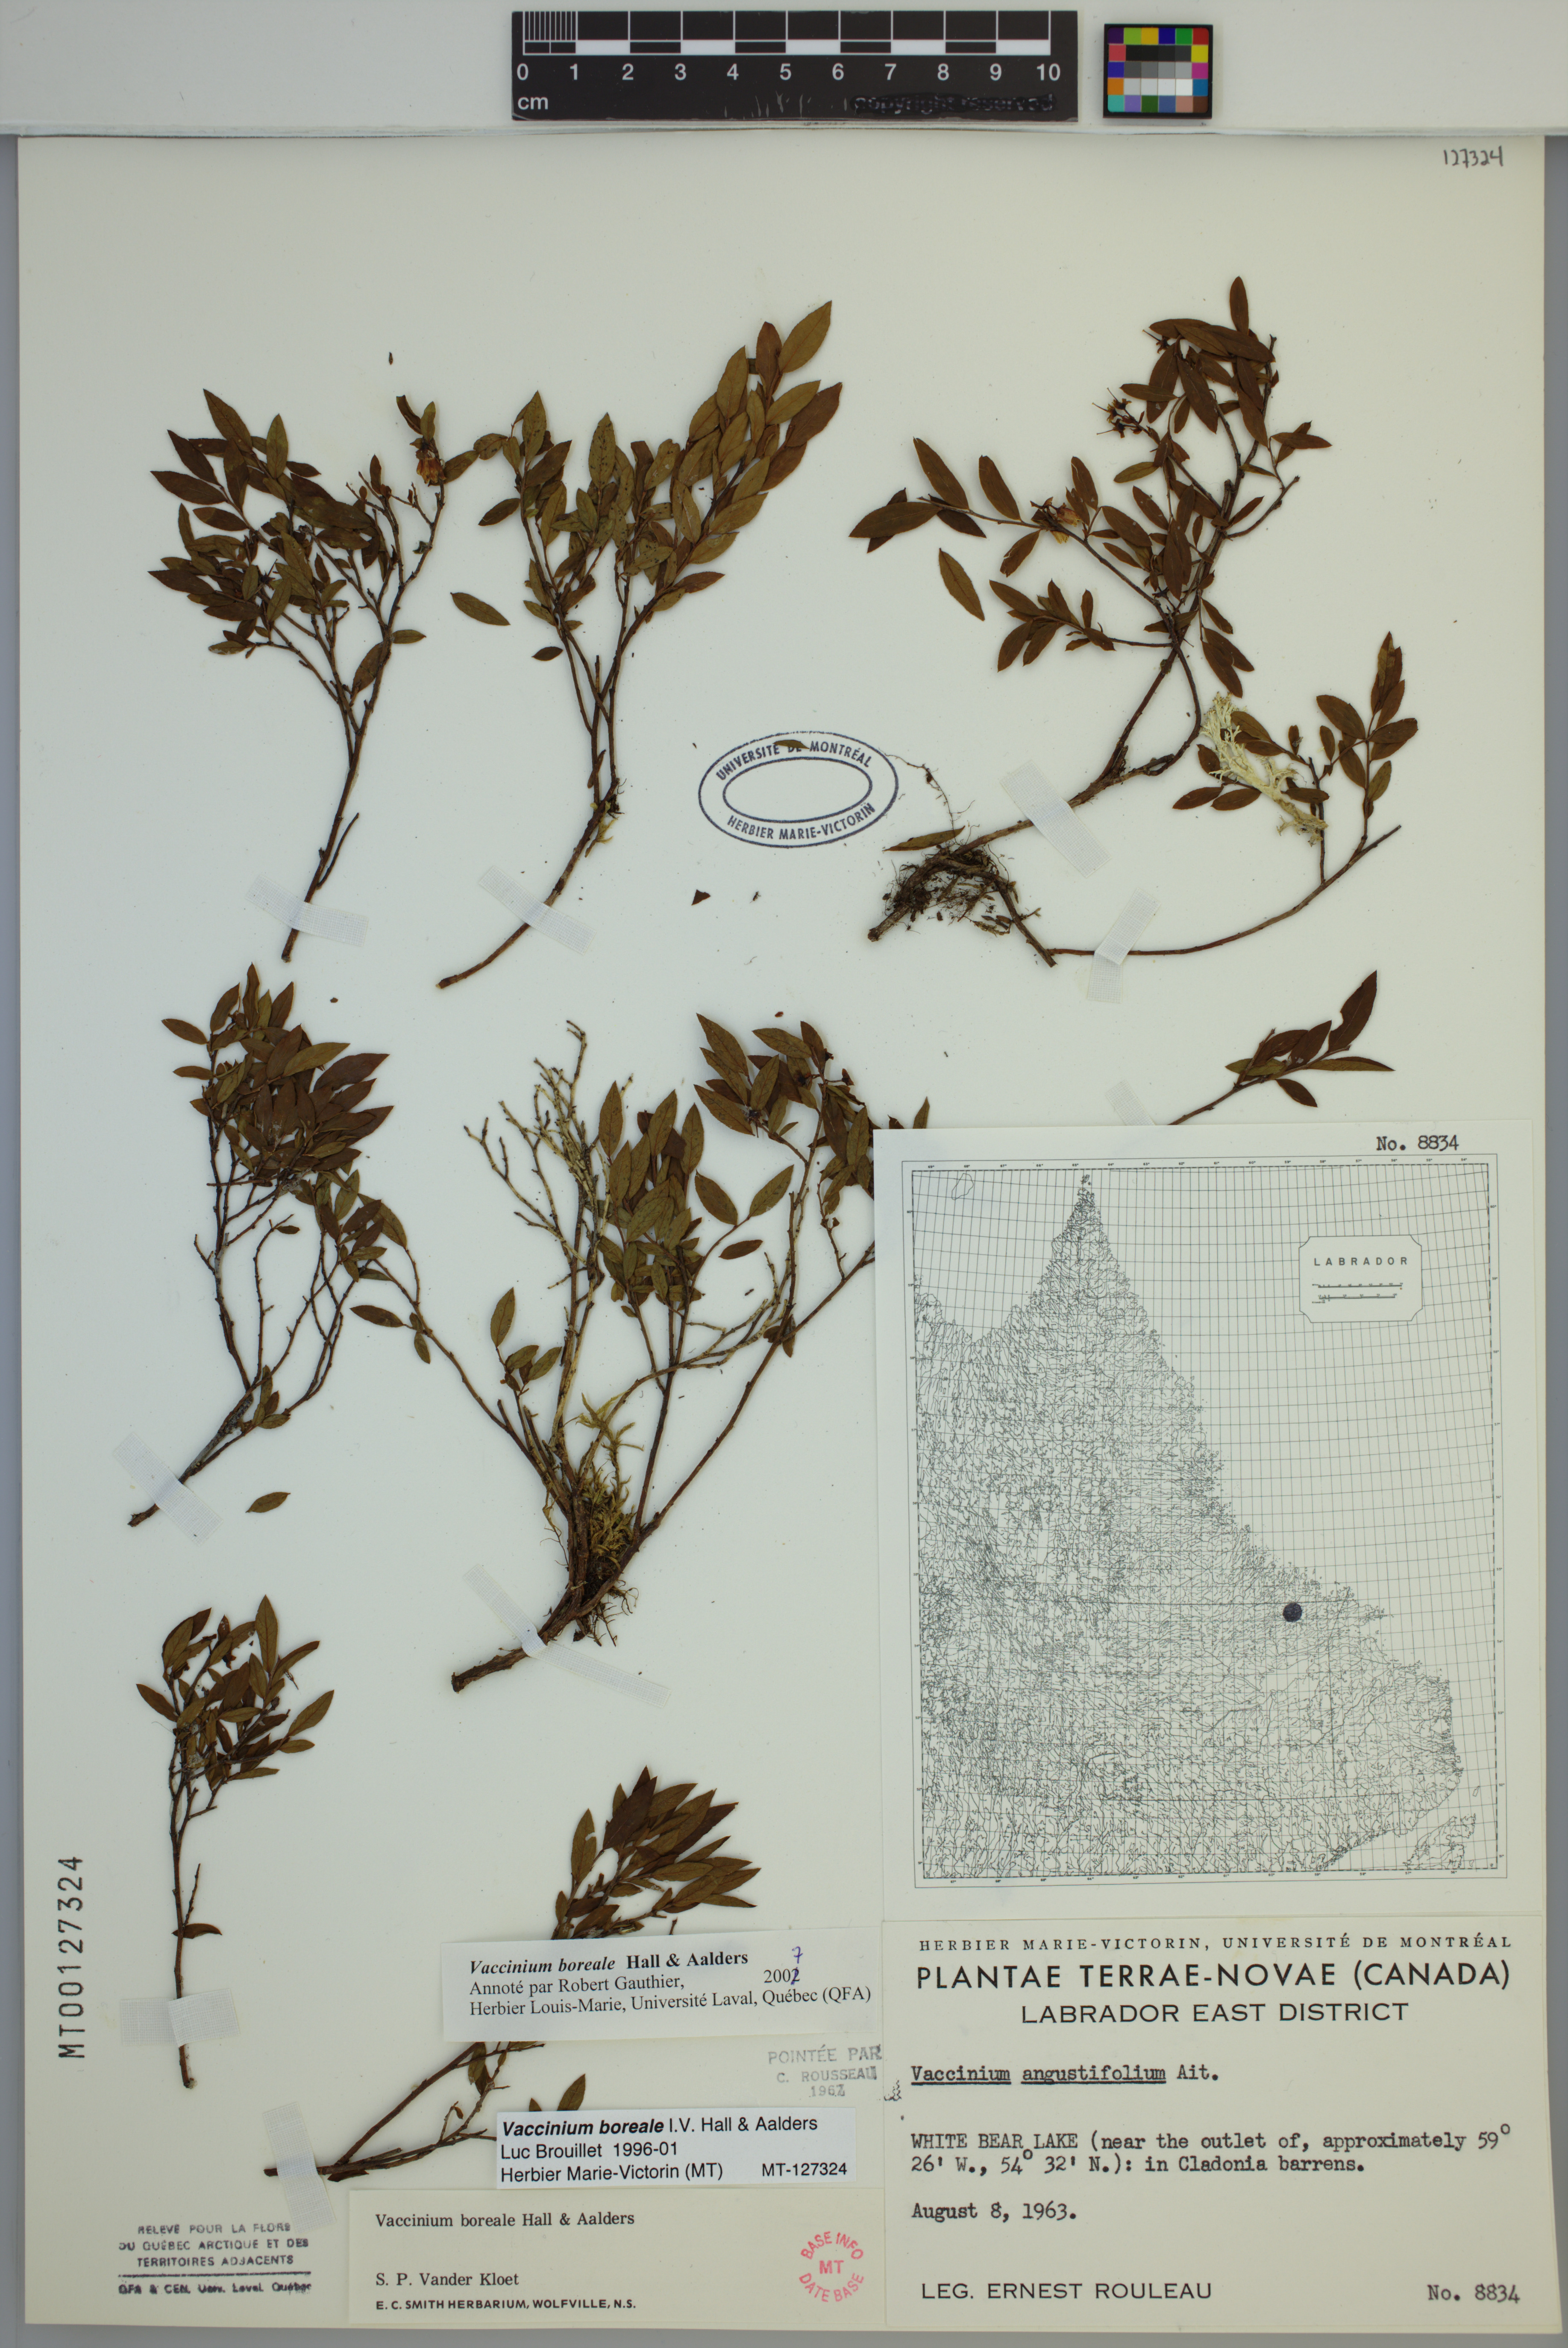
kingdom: Plantae
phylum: Tracheophyta
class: Magnoliopsida
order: Ericales
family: Ericaceae
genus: Vaccinium
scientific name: Vaccinium boreale
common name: Northern blueberry
